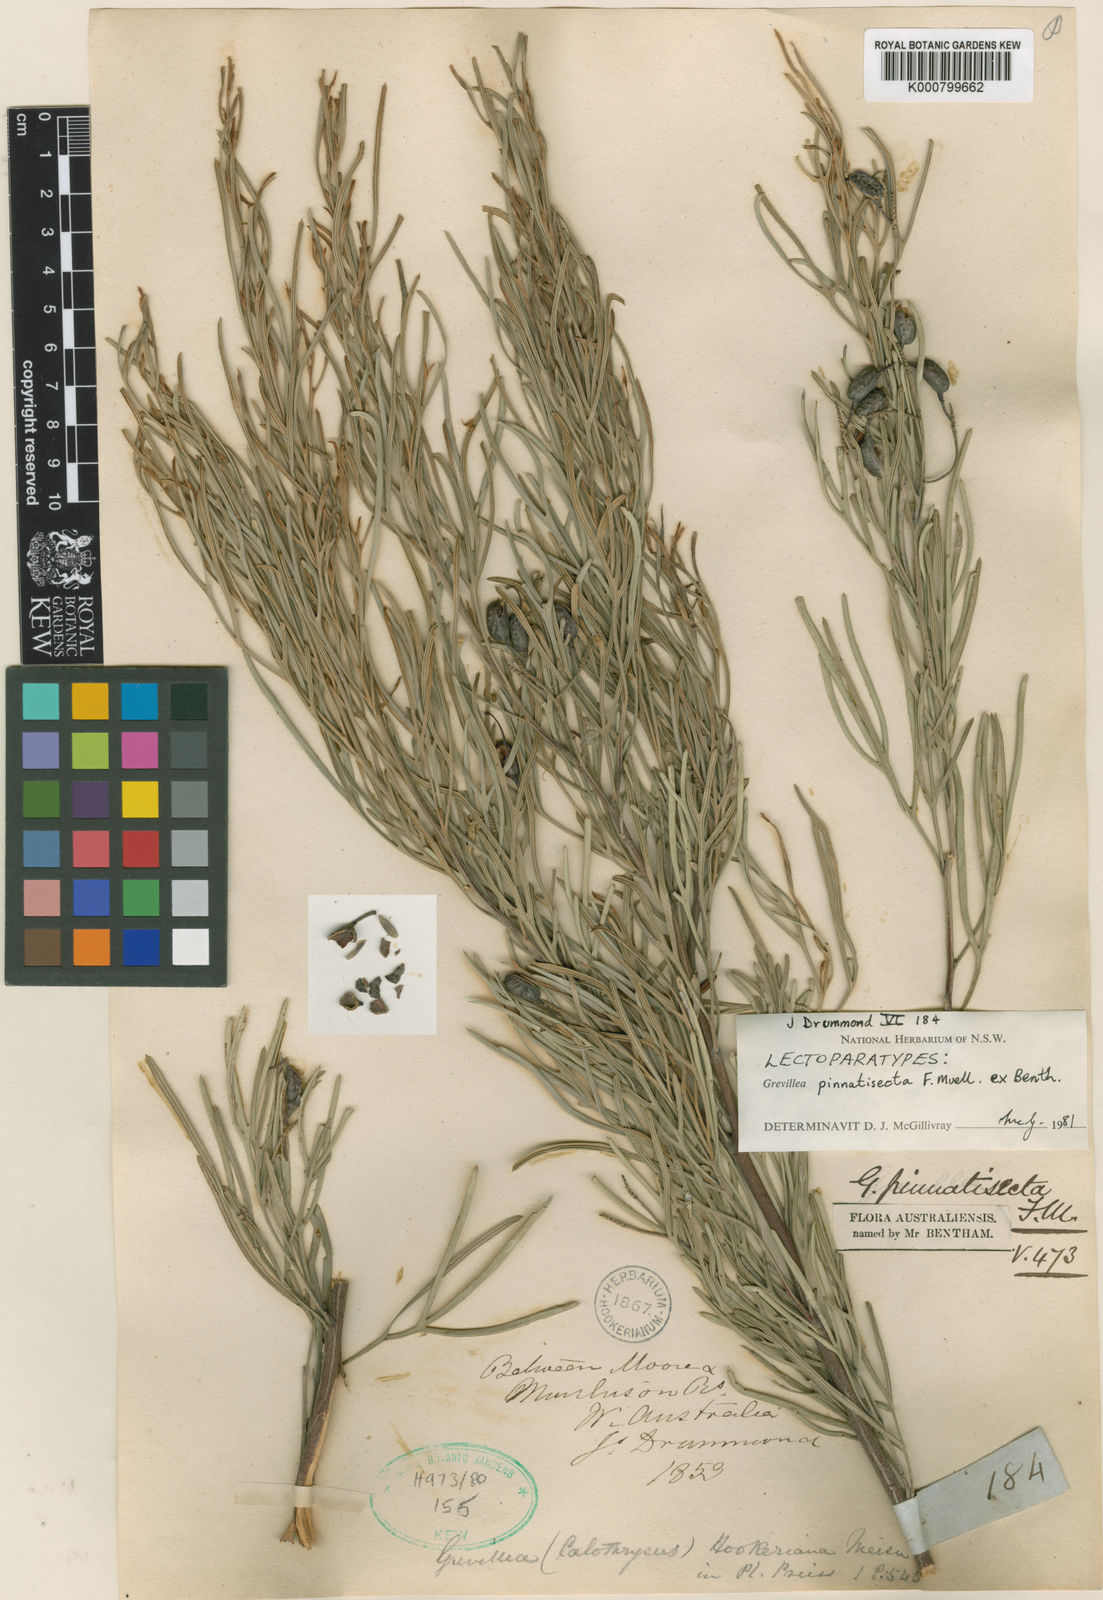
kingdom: Plantae
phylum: Tracheophyta
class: Magnoliopsida
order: Proteales
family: Proteaceae
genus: Grevillea
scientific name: Grevillea commutata
